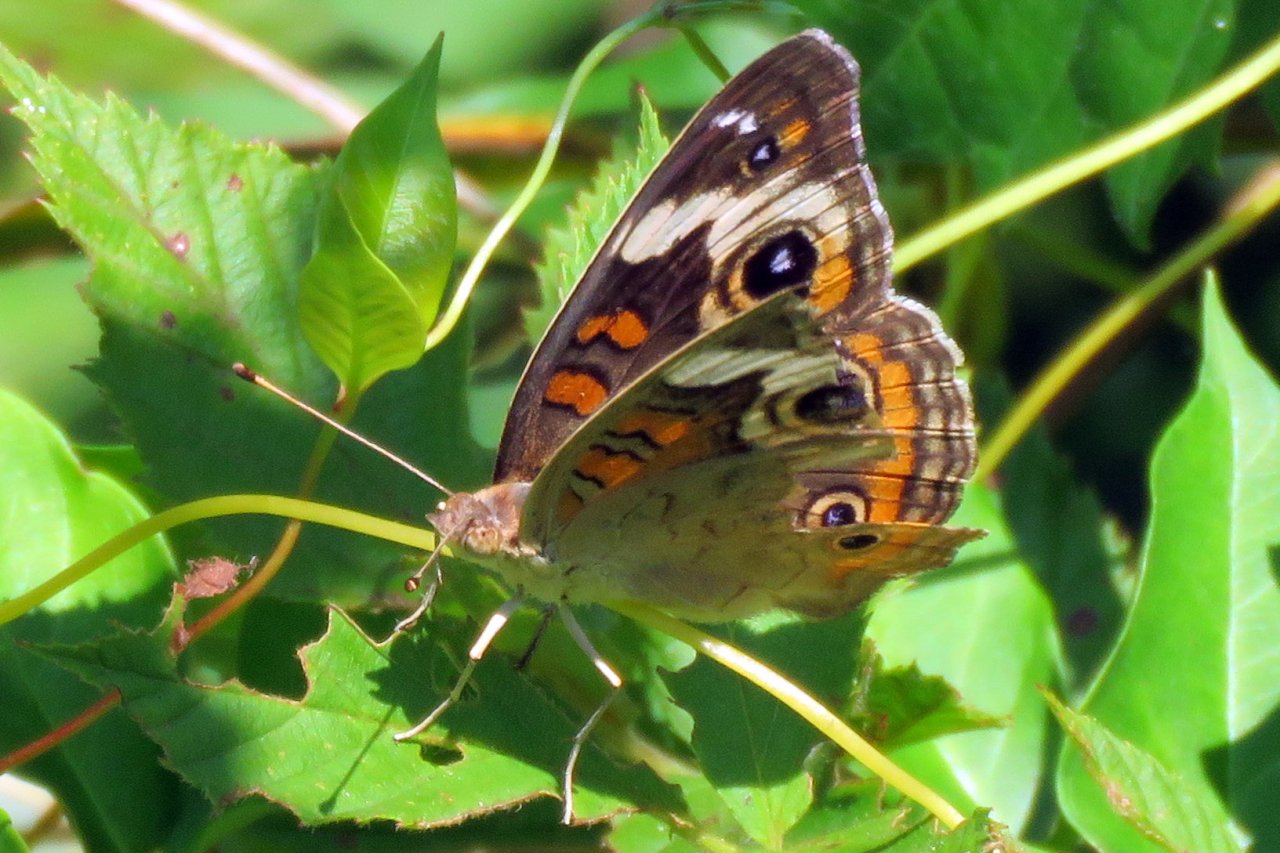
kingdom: Animalia
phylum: Arthropoda
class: Insecta
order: Lepidoptera
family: Nymphalidae
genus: Junonia
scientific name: Junonia coenia
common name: Common Buckeye
